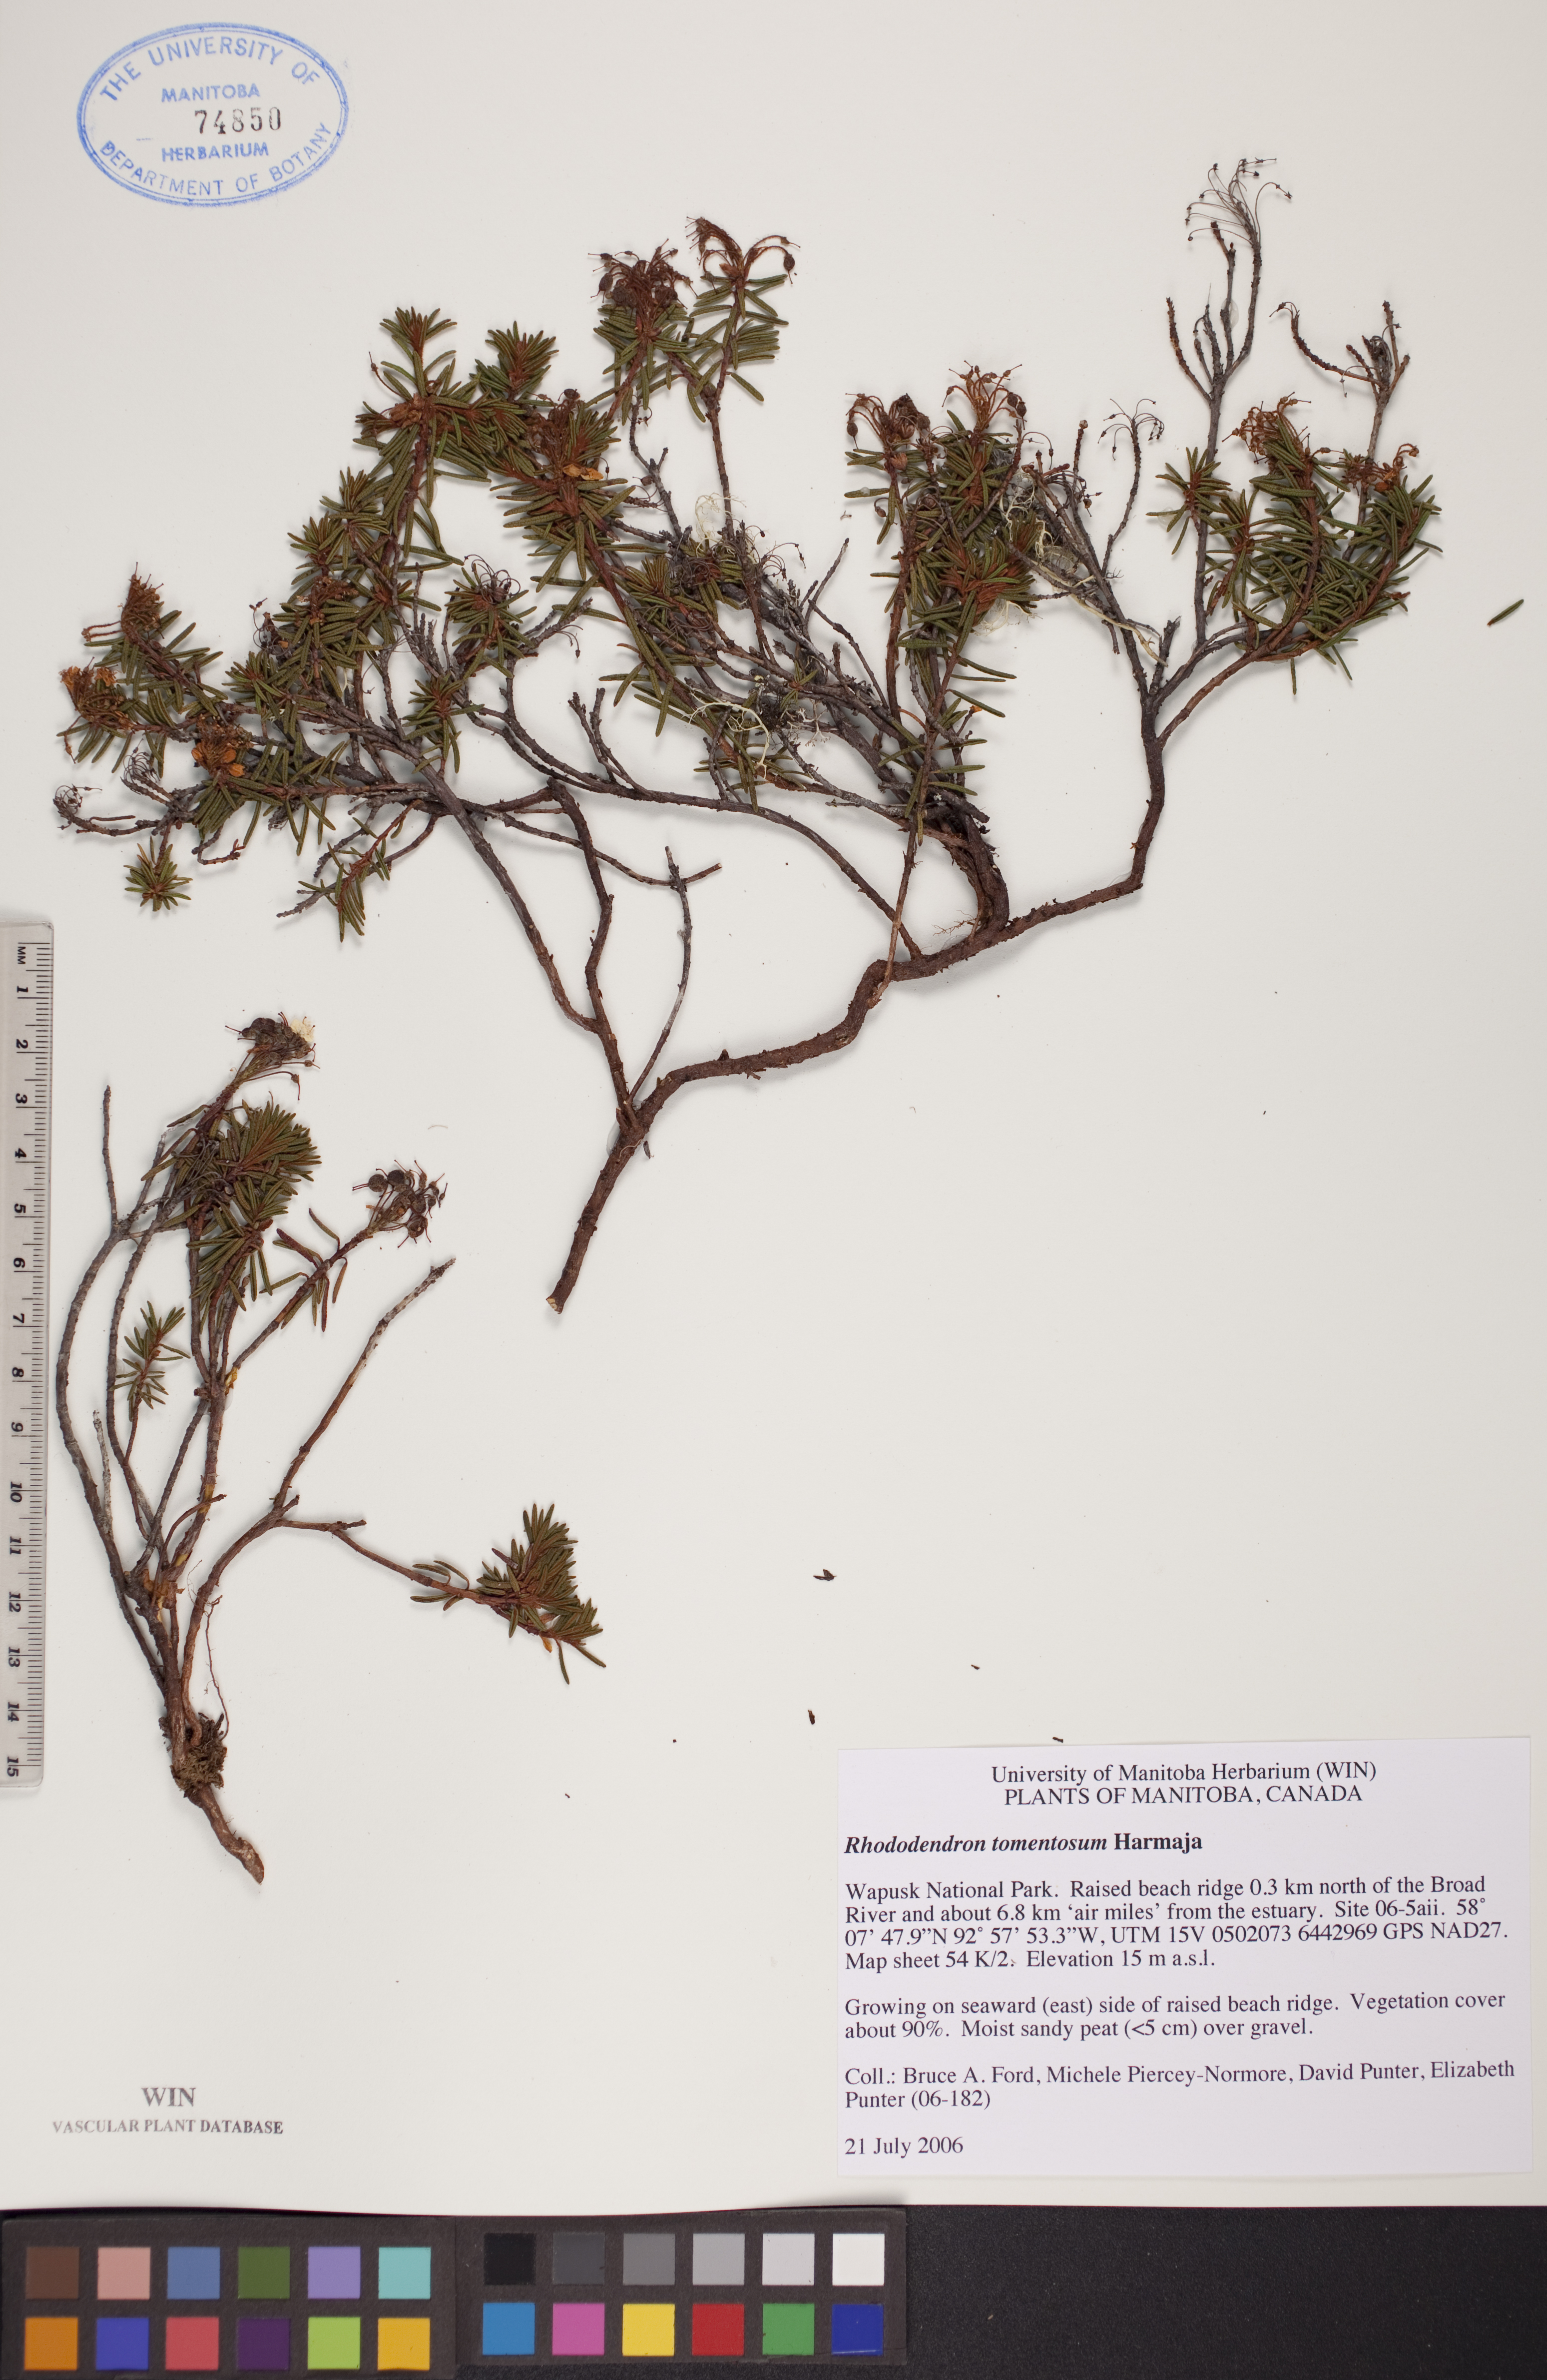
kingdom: Plantae
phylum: Tracheophyta
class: Magnoliopsida
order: Ericales
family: Ericaceae
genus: Rhododendron
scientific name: Rhododendron tomentosum
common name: Marsh labrador tea
